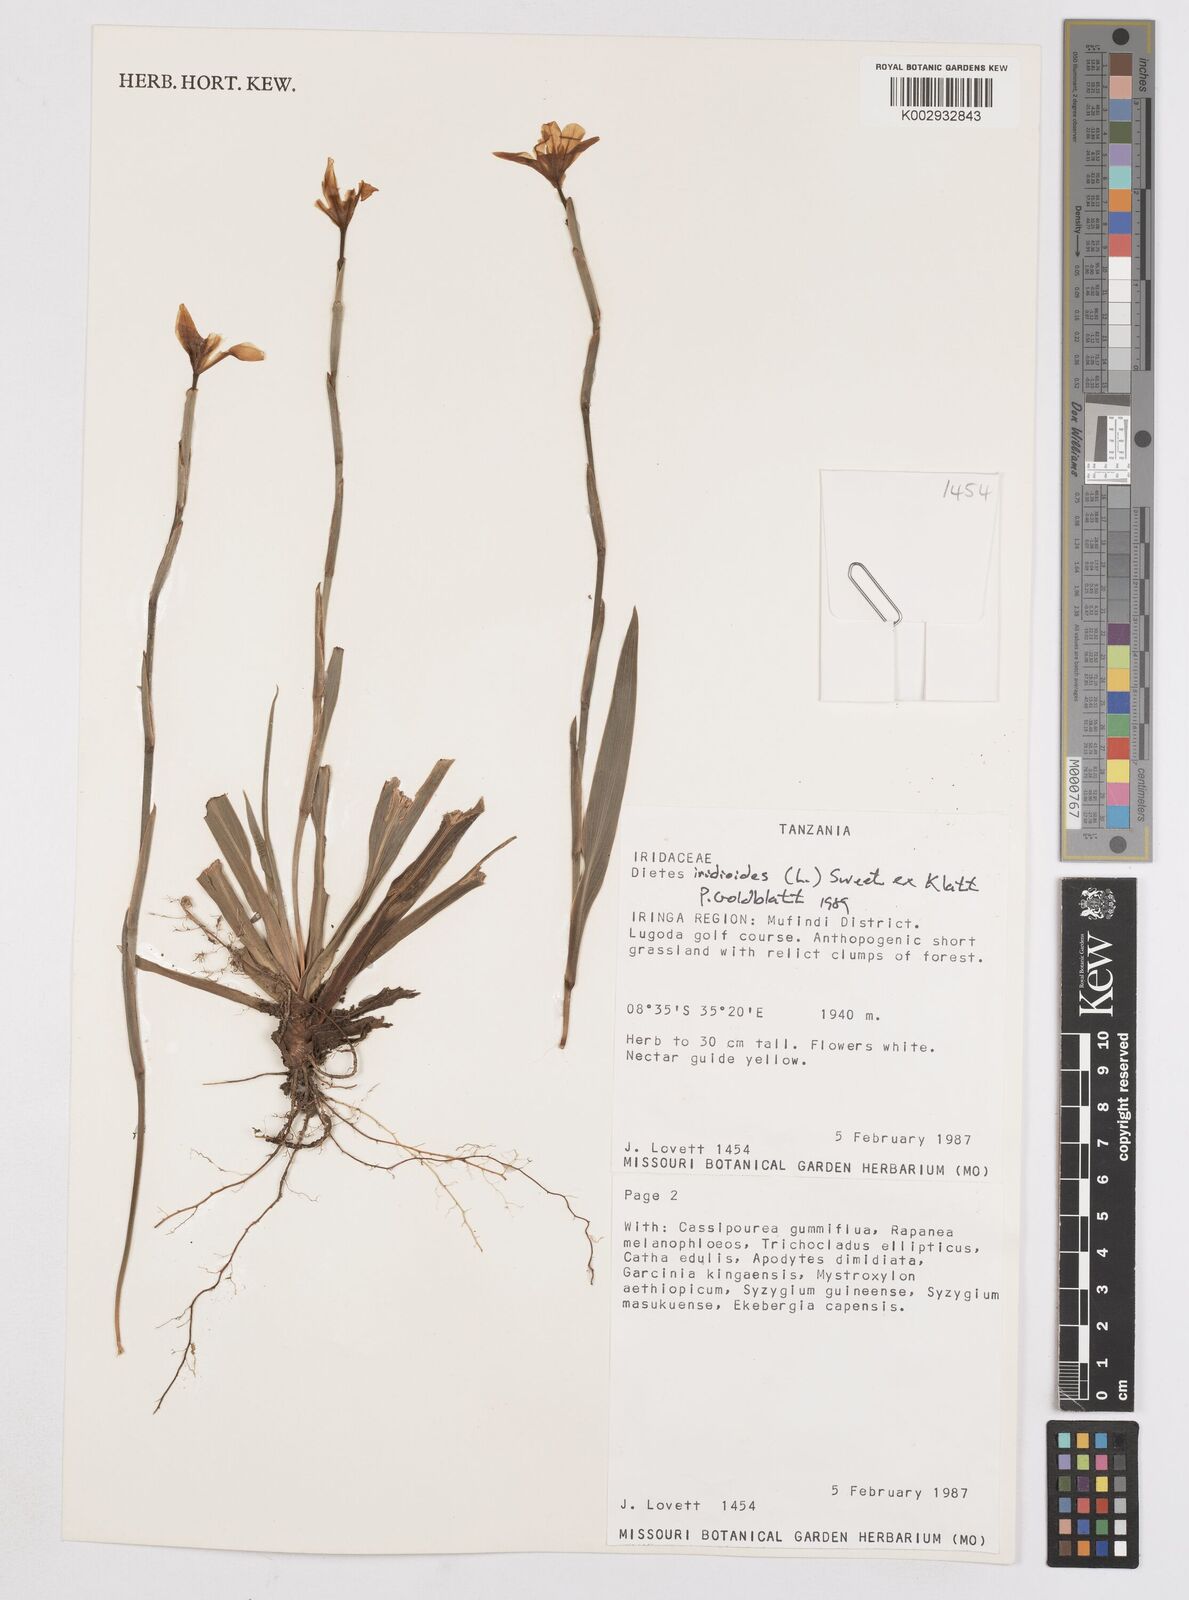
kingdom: Plantae
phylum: Tracheophyta
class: Liliopsida
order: Asparagales
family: Iridaceae
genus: Dietes
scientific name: Dietes iridioides
